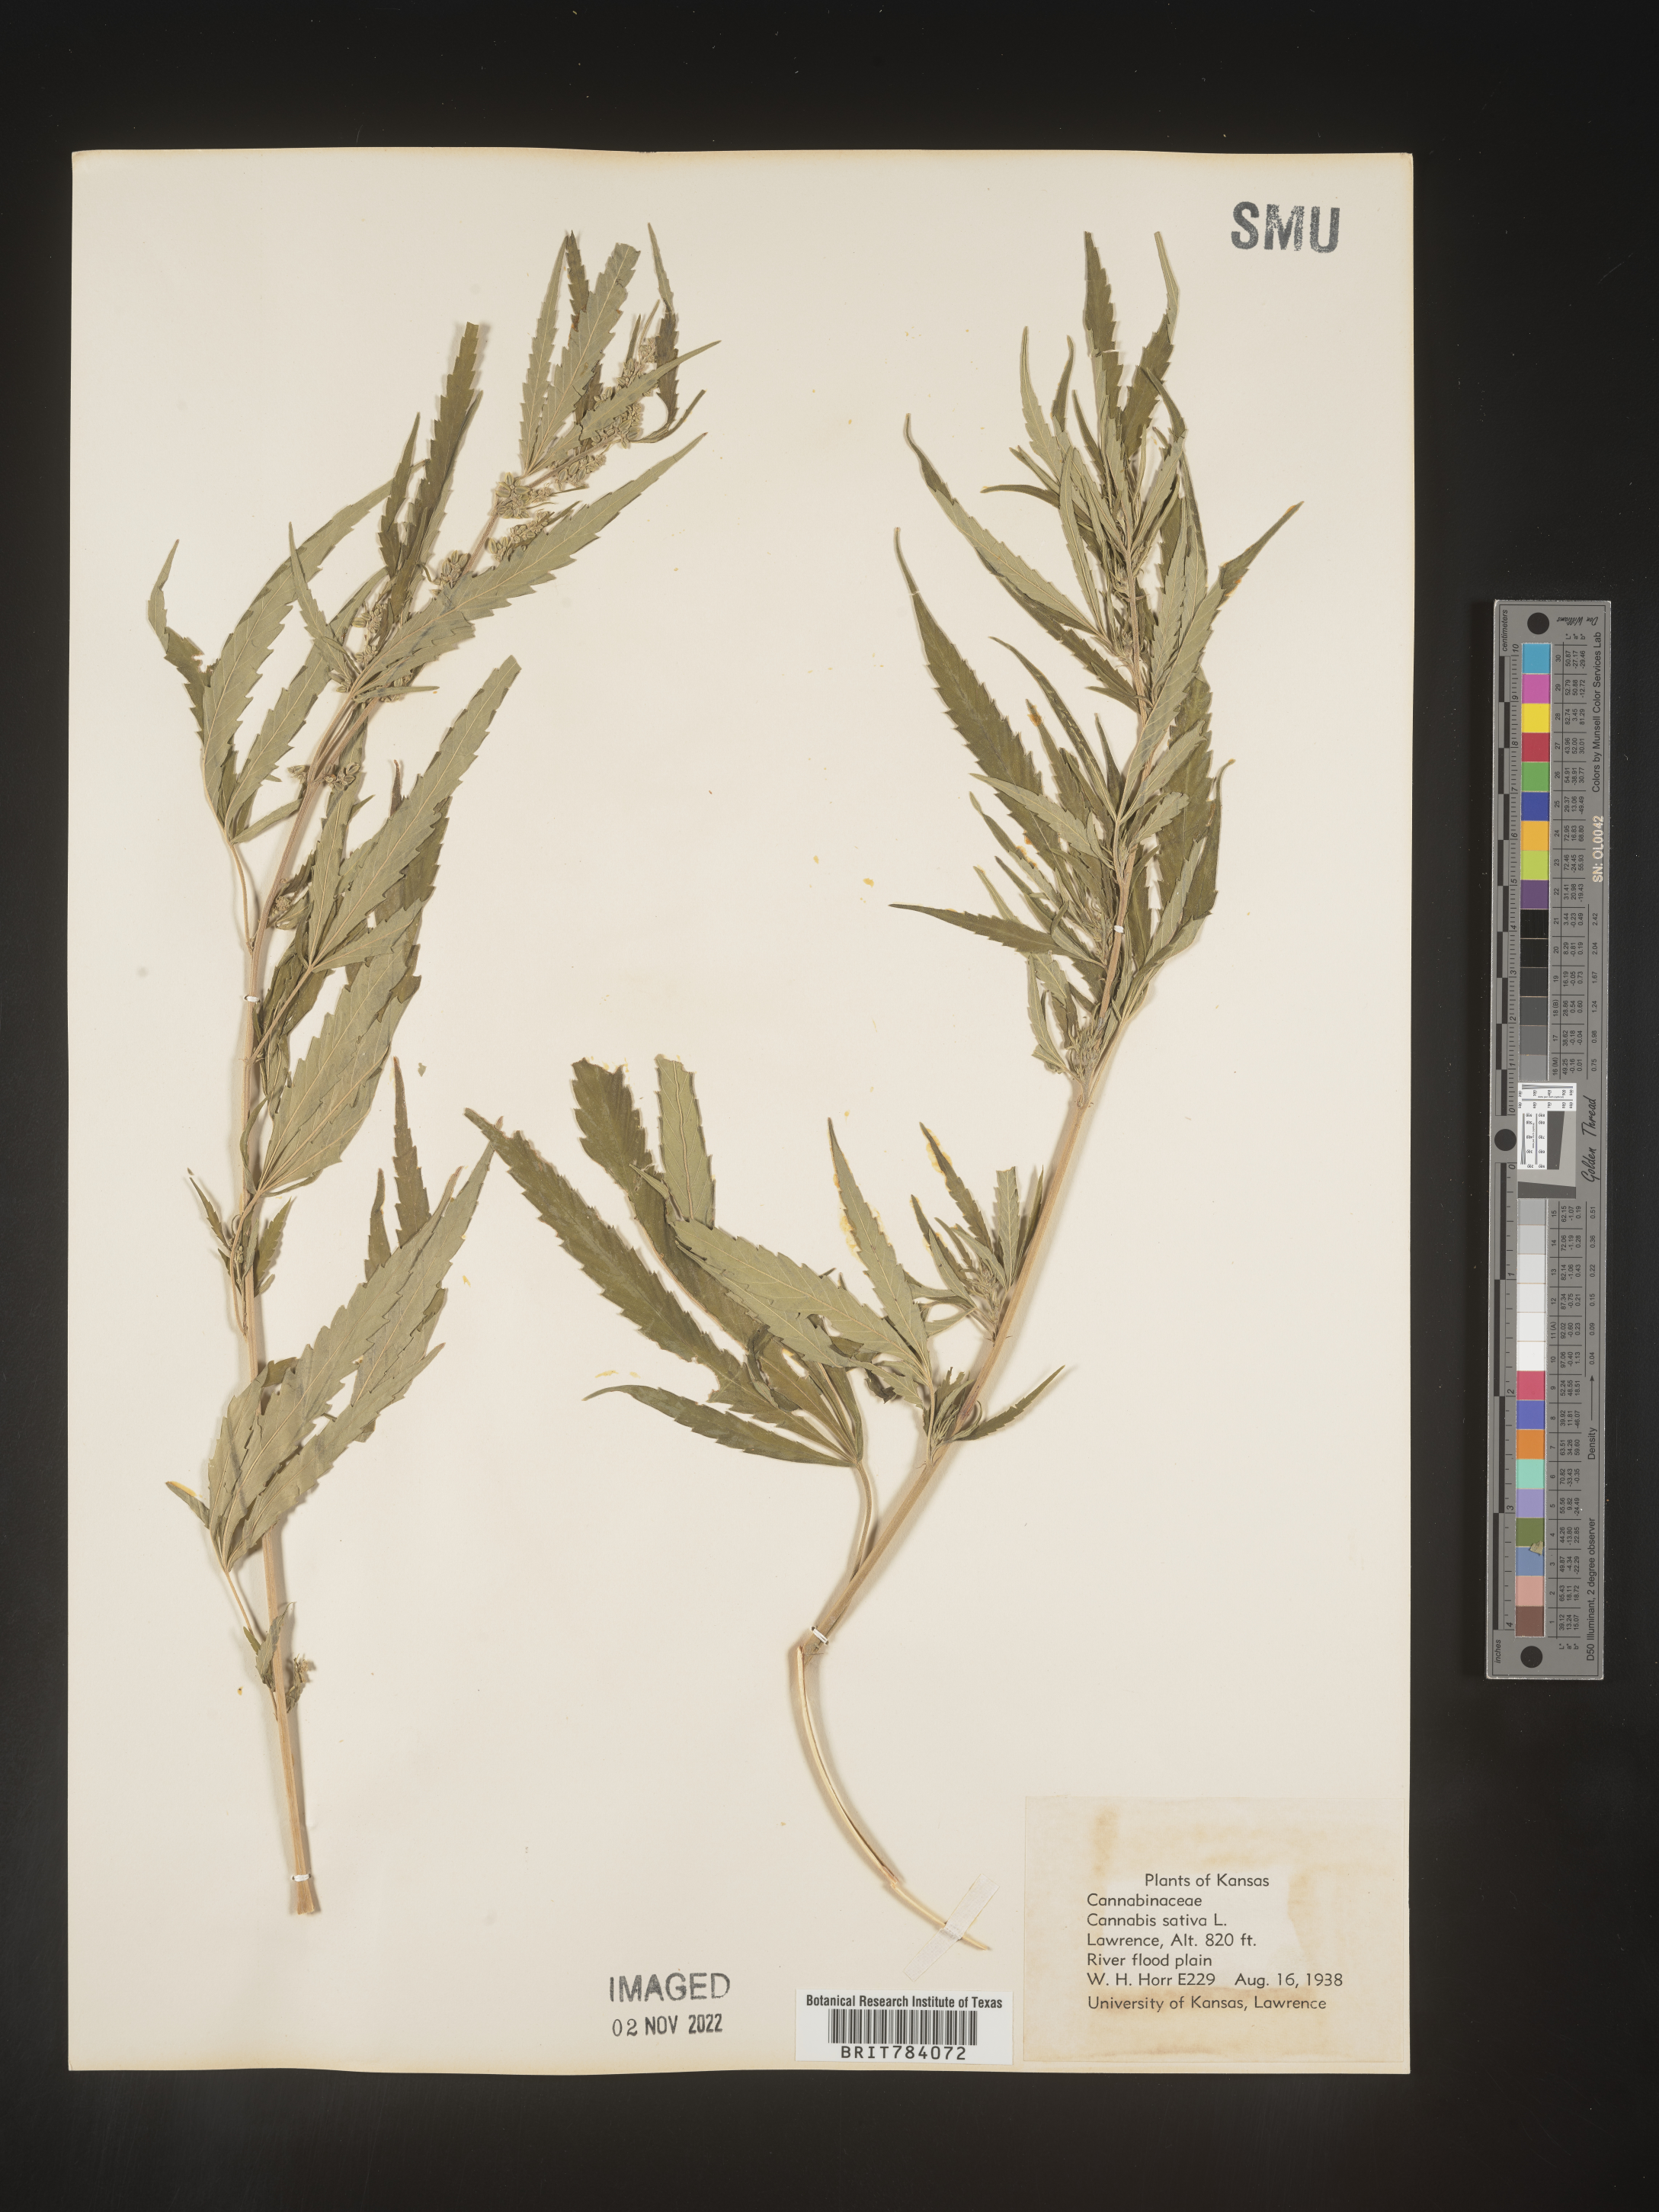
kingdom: Plantae
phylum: Tracheophyta
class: Magnoliopsida
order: Rosales
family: Cannabaceae
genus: Cannabis
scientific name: Cannabis sativa
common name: Hemp
